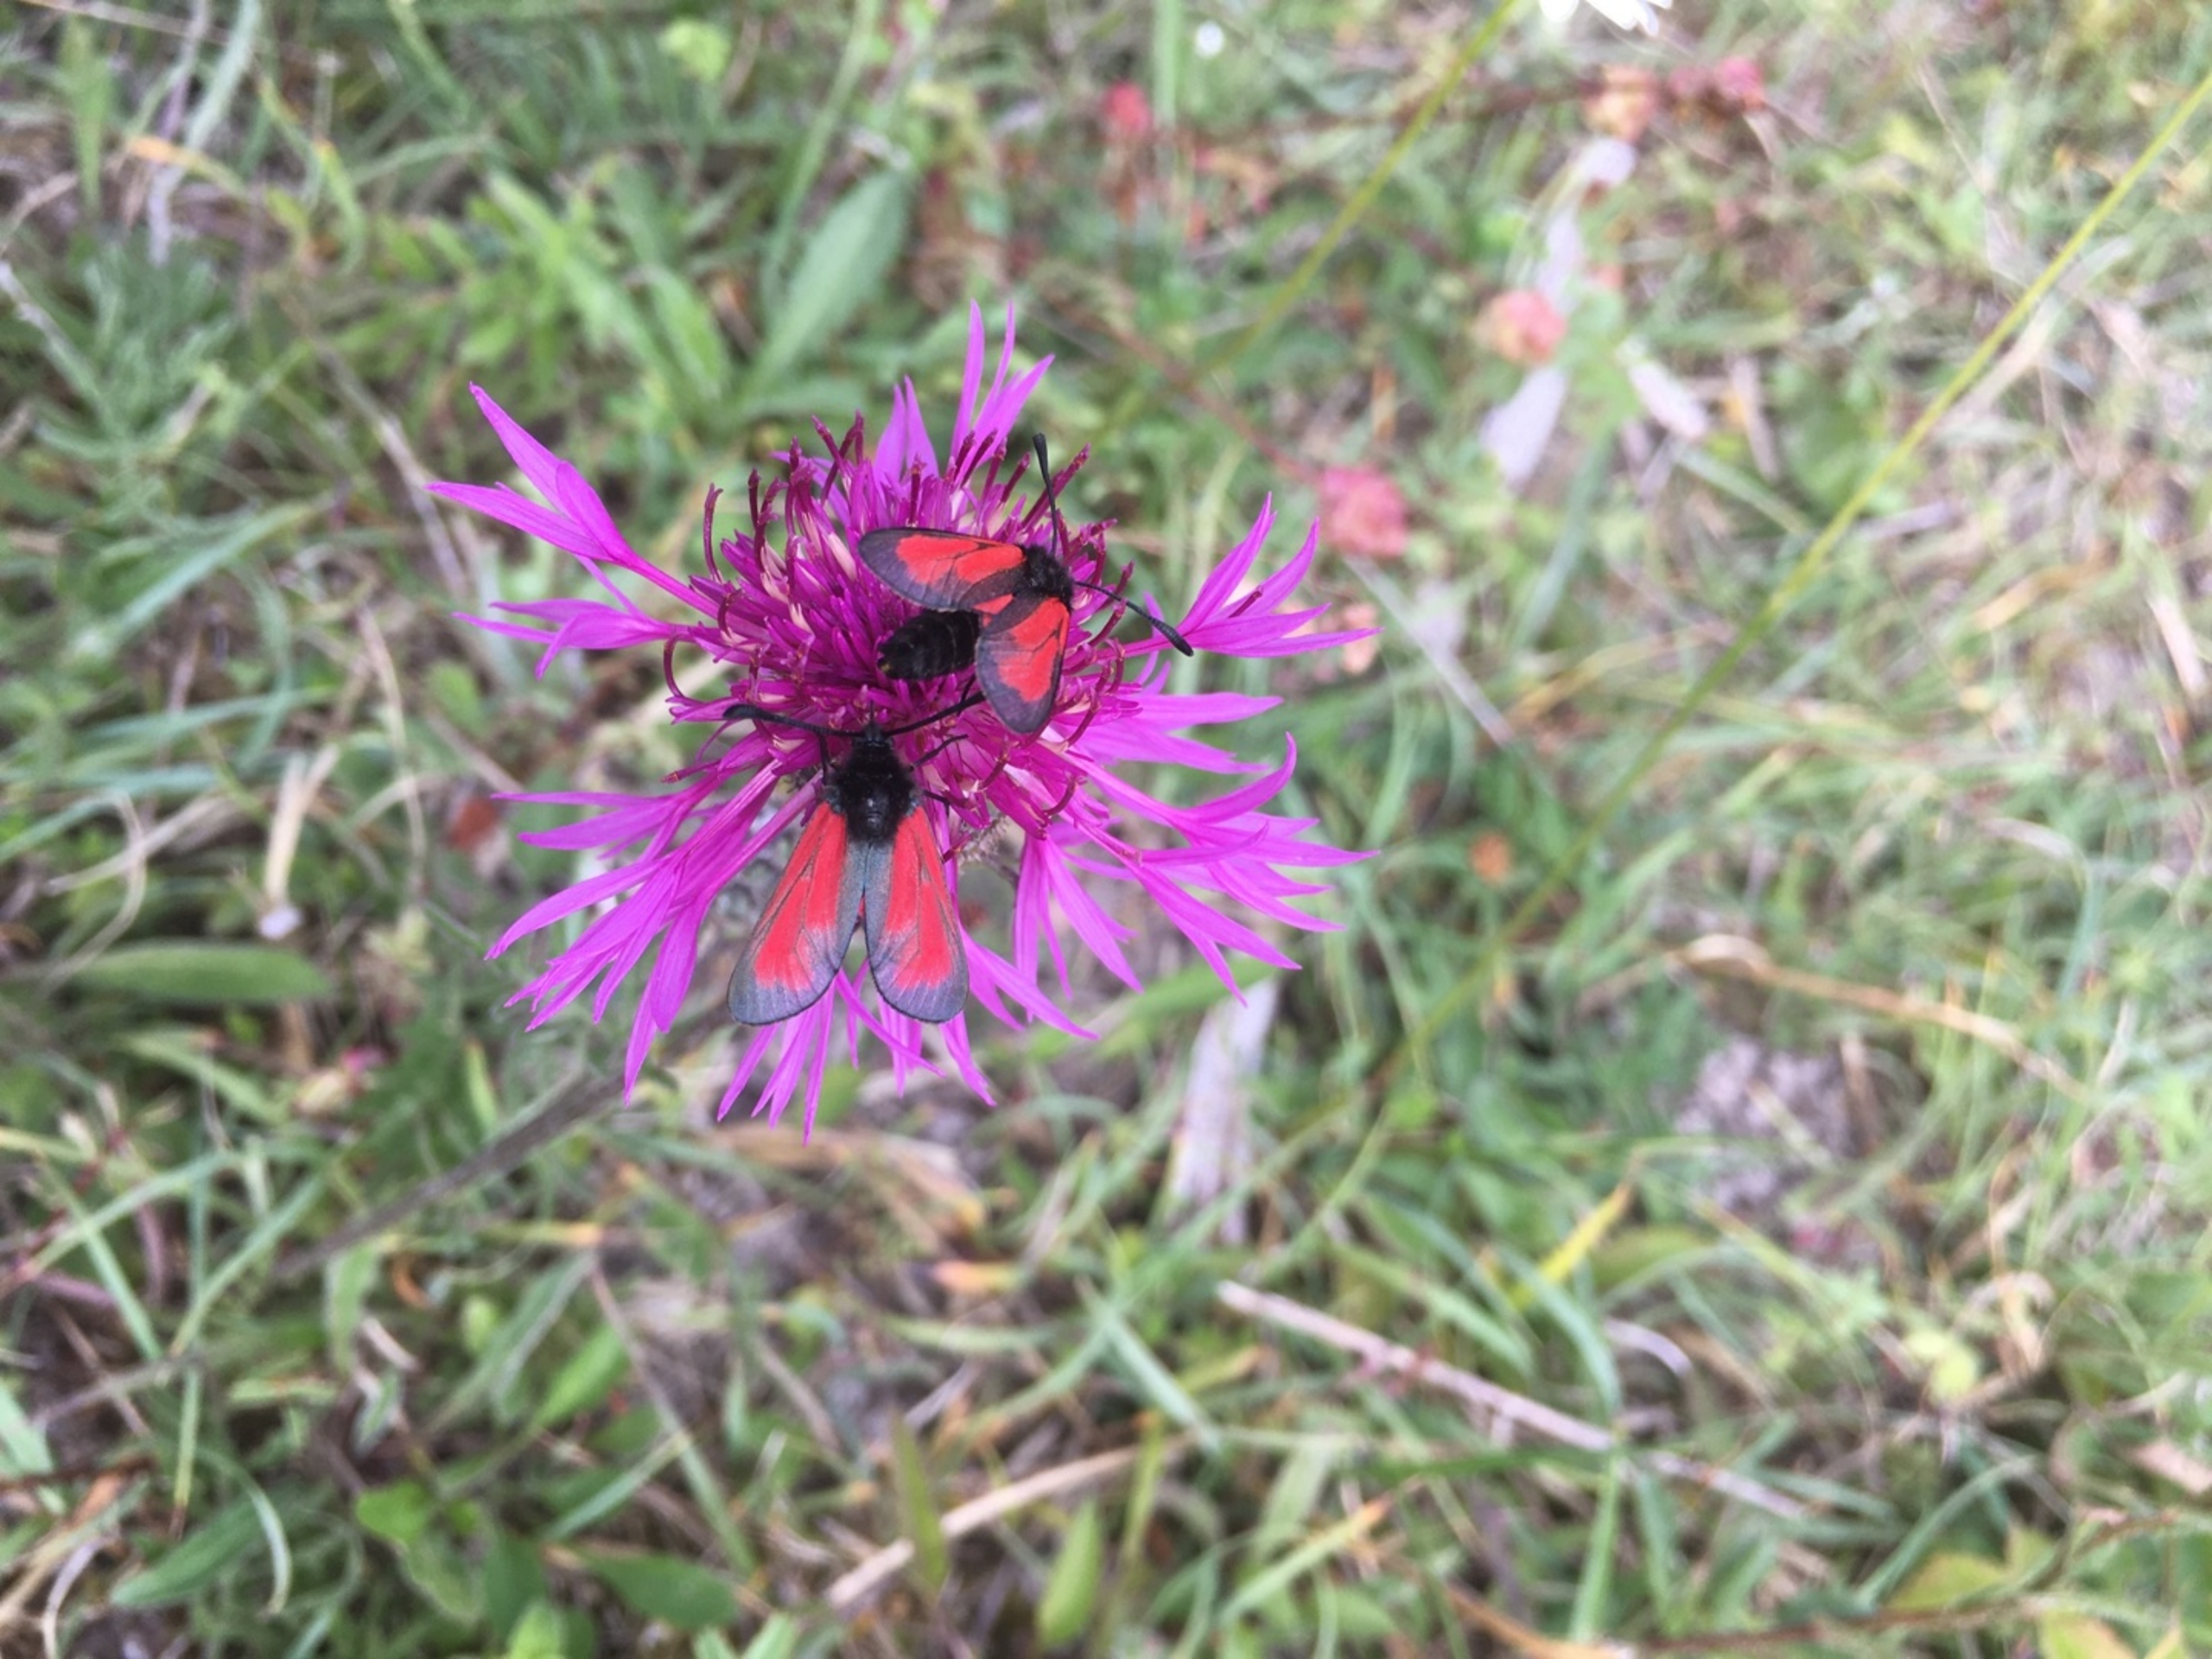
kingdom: Animalia
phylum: Arthropoda
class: Insecta
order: Lepidoptera
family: Zygaenidae
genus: Zygaena
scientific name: Zygaena purpuralis
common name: Timiankøllesværmer
